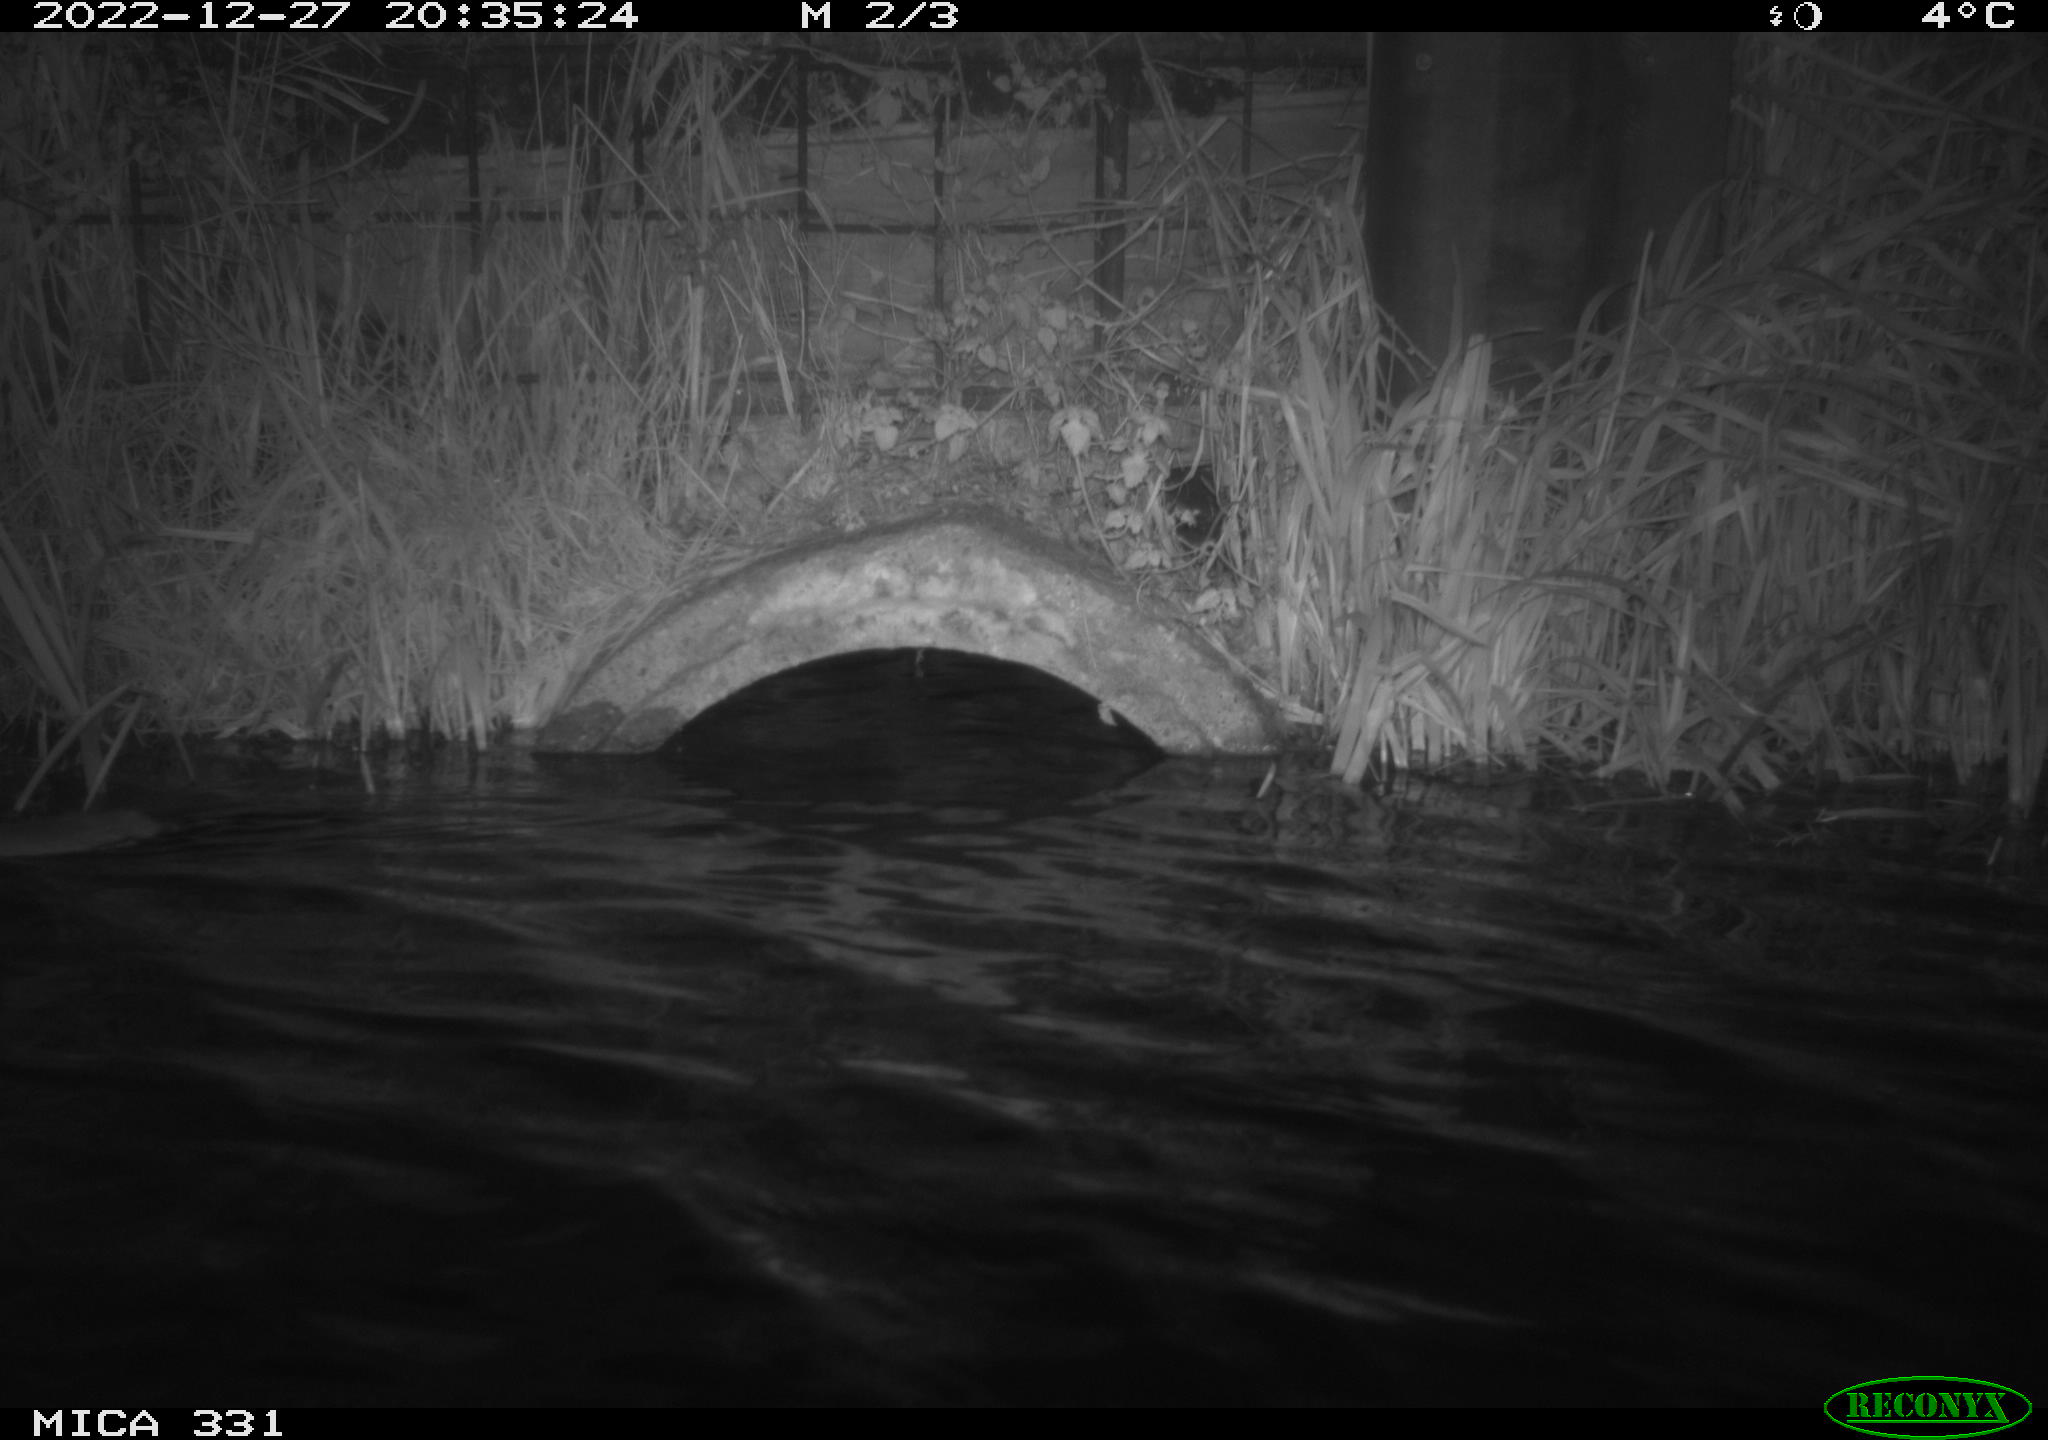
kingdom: Animalia
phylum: Chordata
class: Mammalia
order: Rodentia
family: Muridae
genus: Rattus
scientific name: Rattus norvegicus
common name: Brown rat
